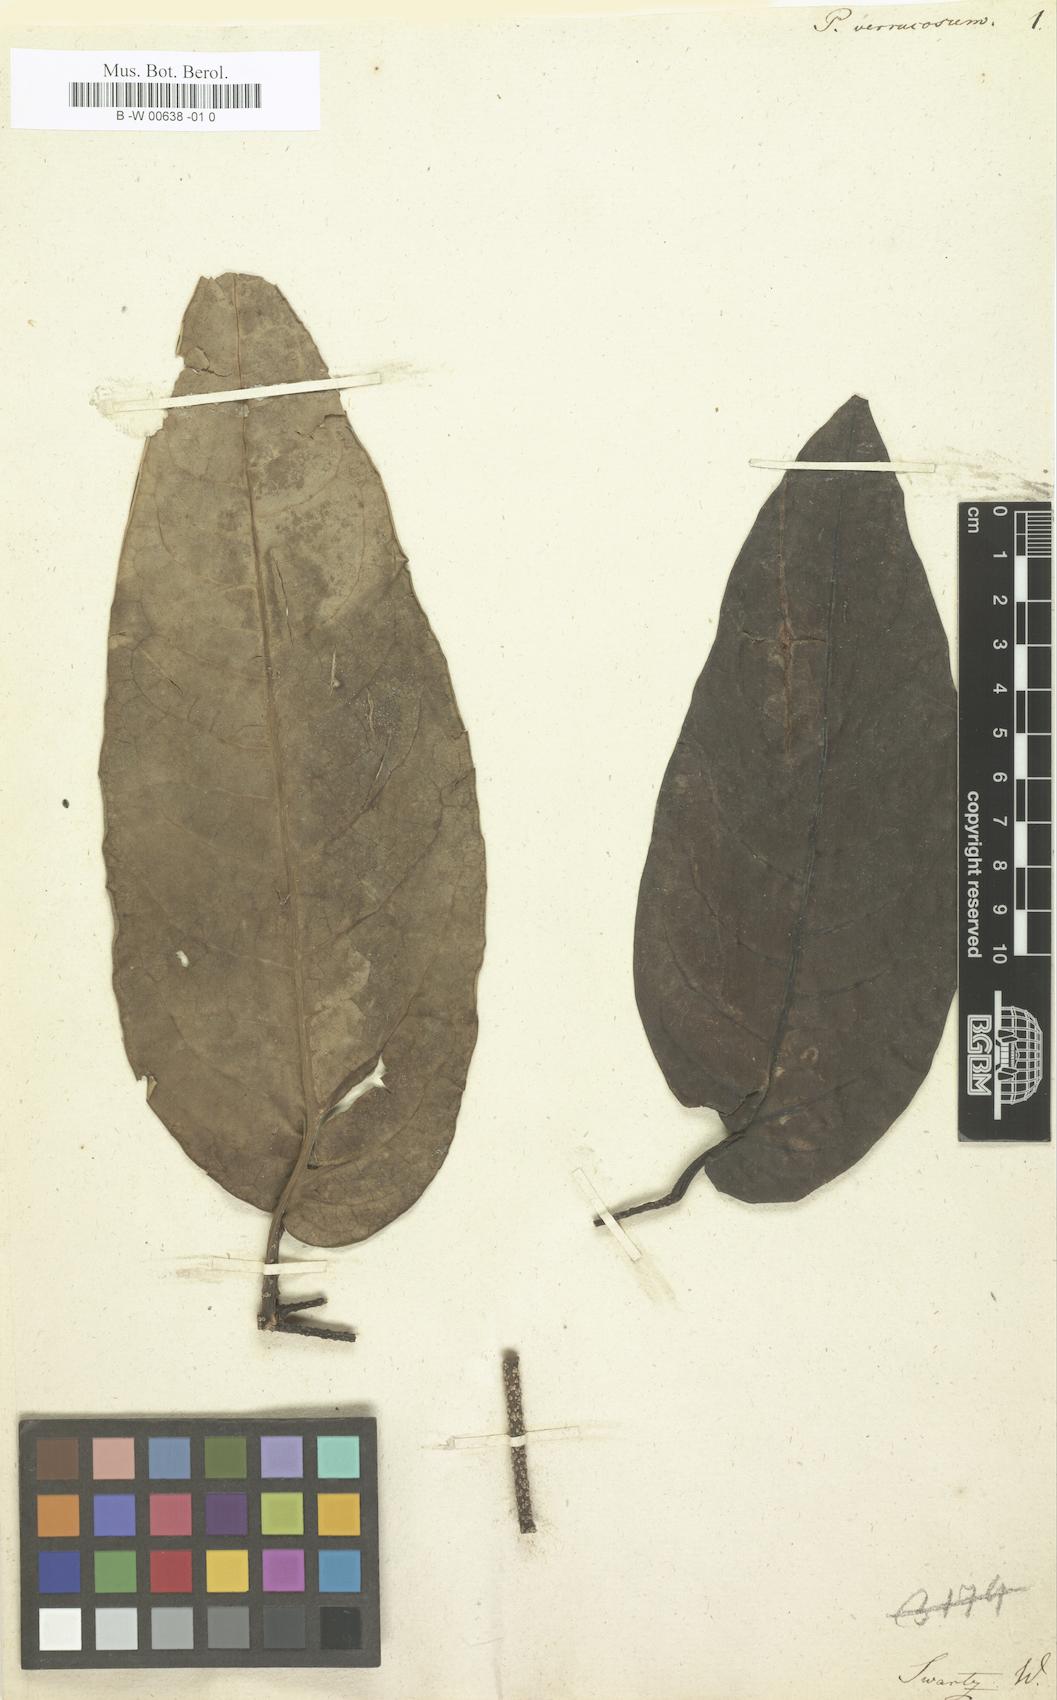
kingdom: Plantae
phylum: Tracheophyta
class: Magnoliopsida
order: Piperales
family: Piperaceae
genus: Piper
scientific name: Piper dilatatum
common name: Higuillo
